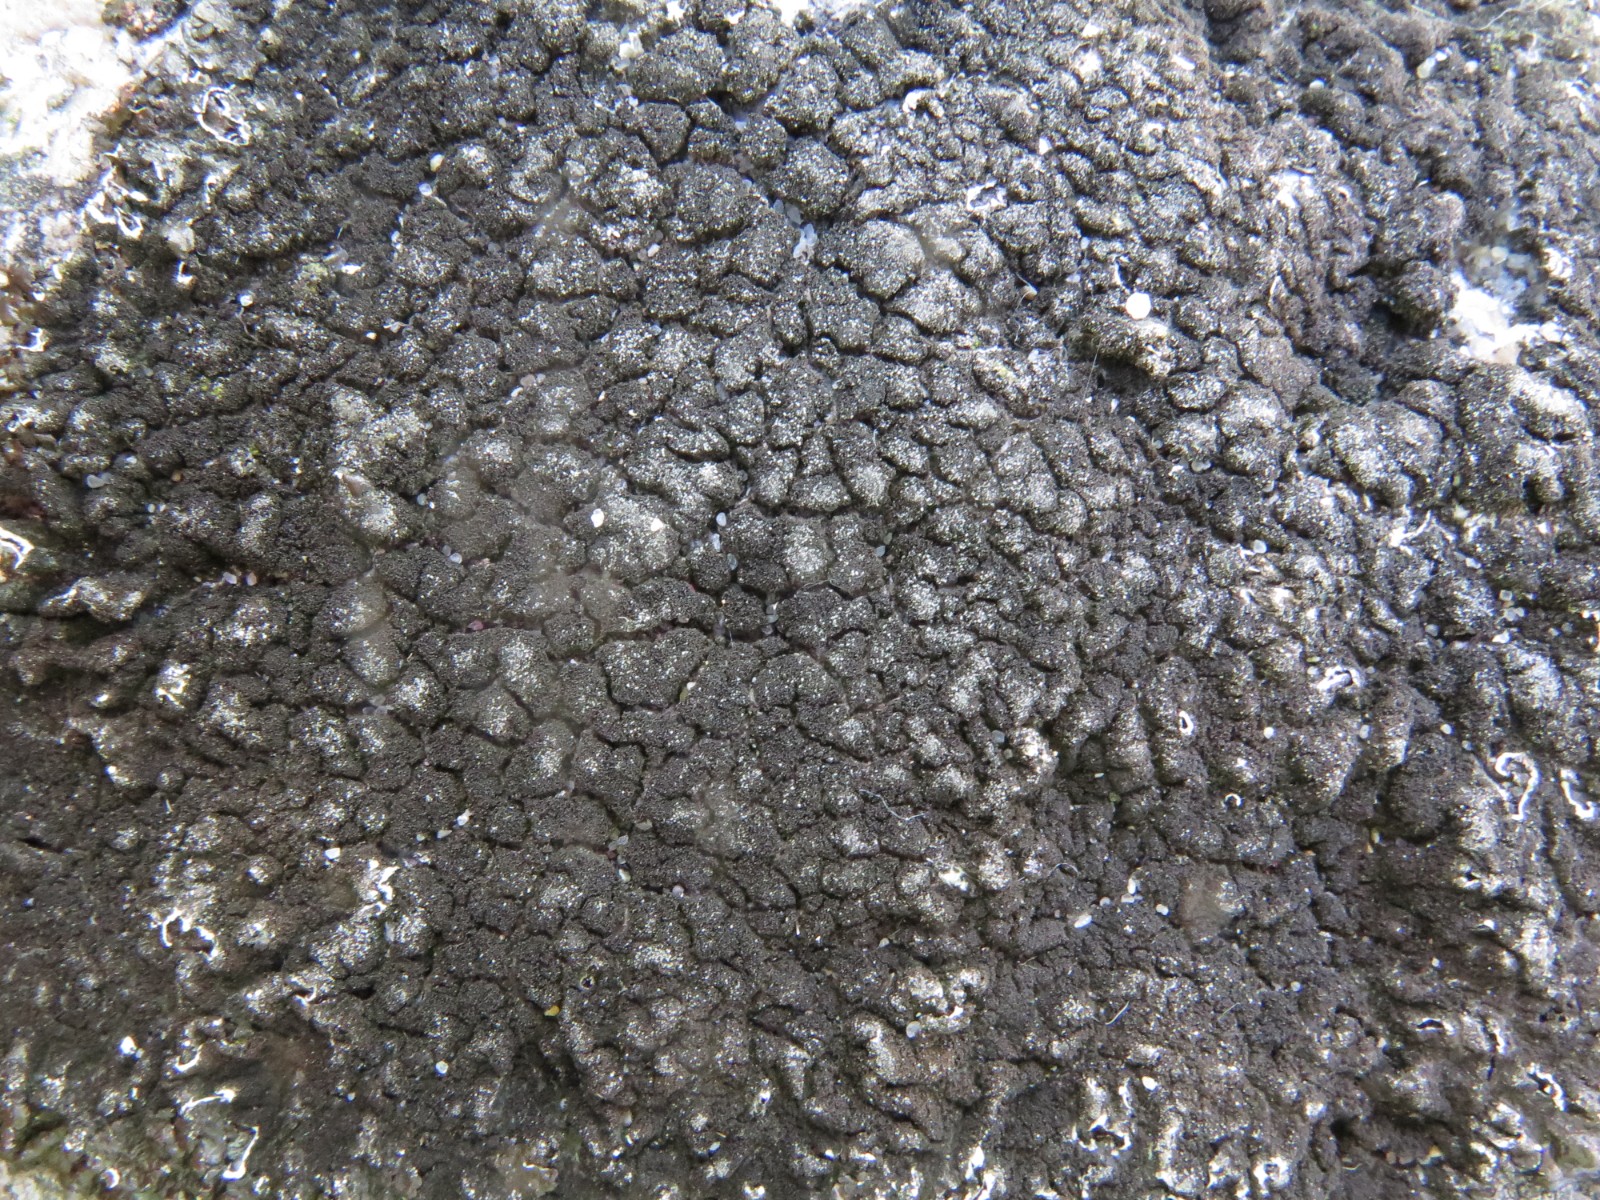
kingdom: Fungi
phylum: Ascomycota
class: Lecanoromycetes
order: Lecanorales
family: Parmeliaceae
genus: Melanelixia
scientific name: Melanelixia fuliginosa
